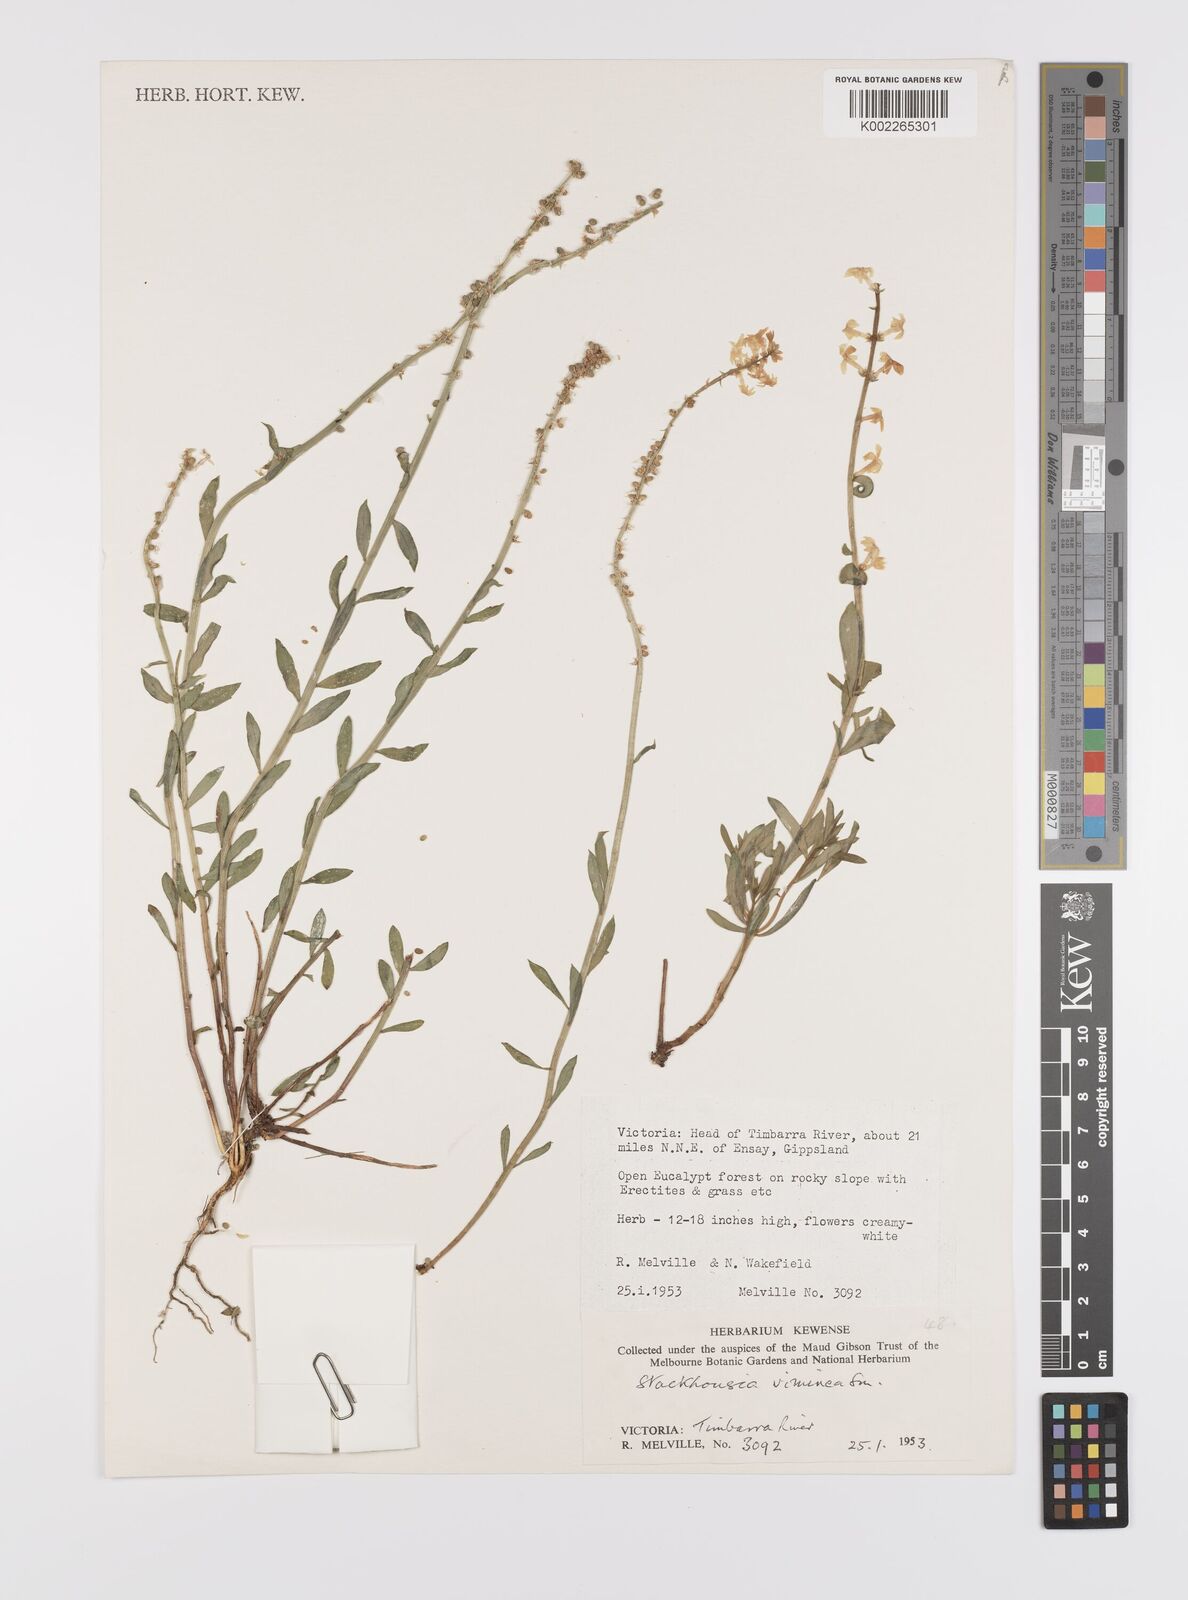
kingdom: Plantae
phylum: Tracheophyta
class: Magnoliopsida
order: Celastrales
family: Celastraceae
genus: Stackhousia
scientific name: Stackhousia viminea
